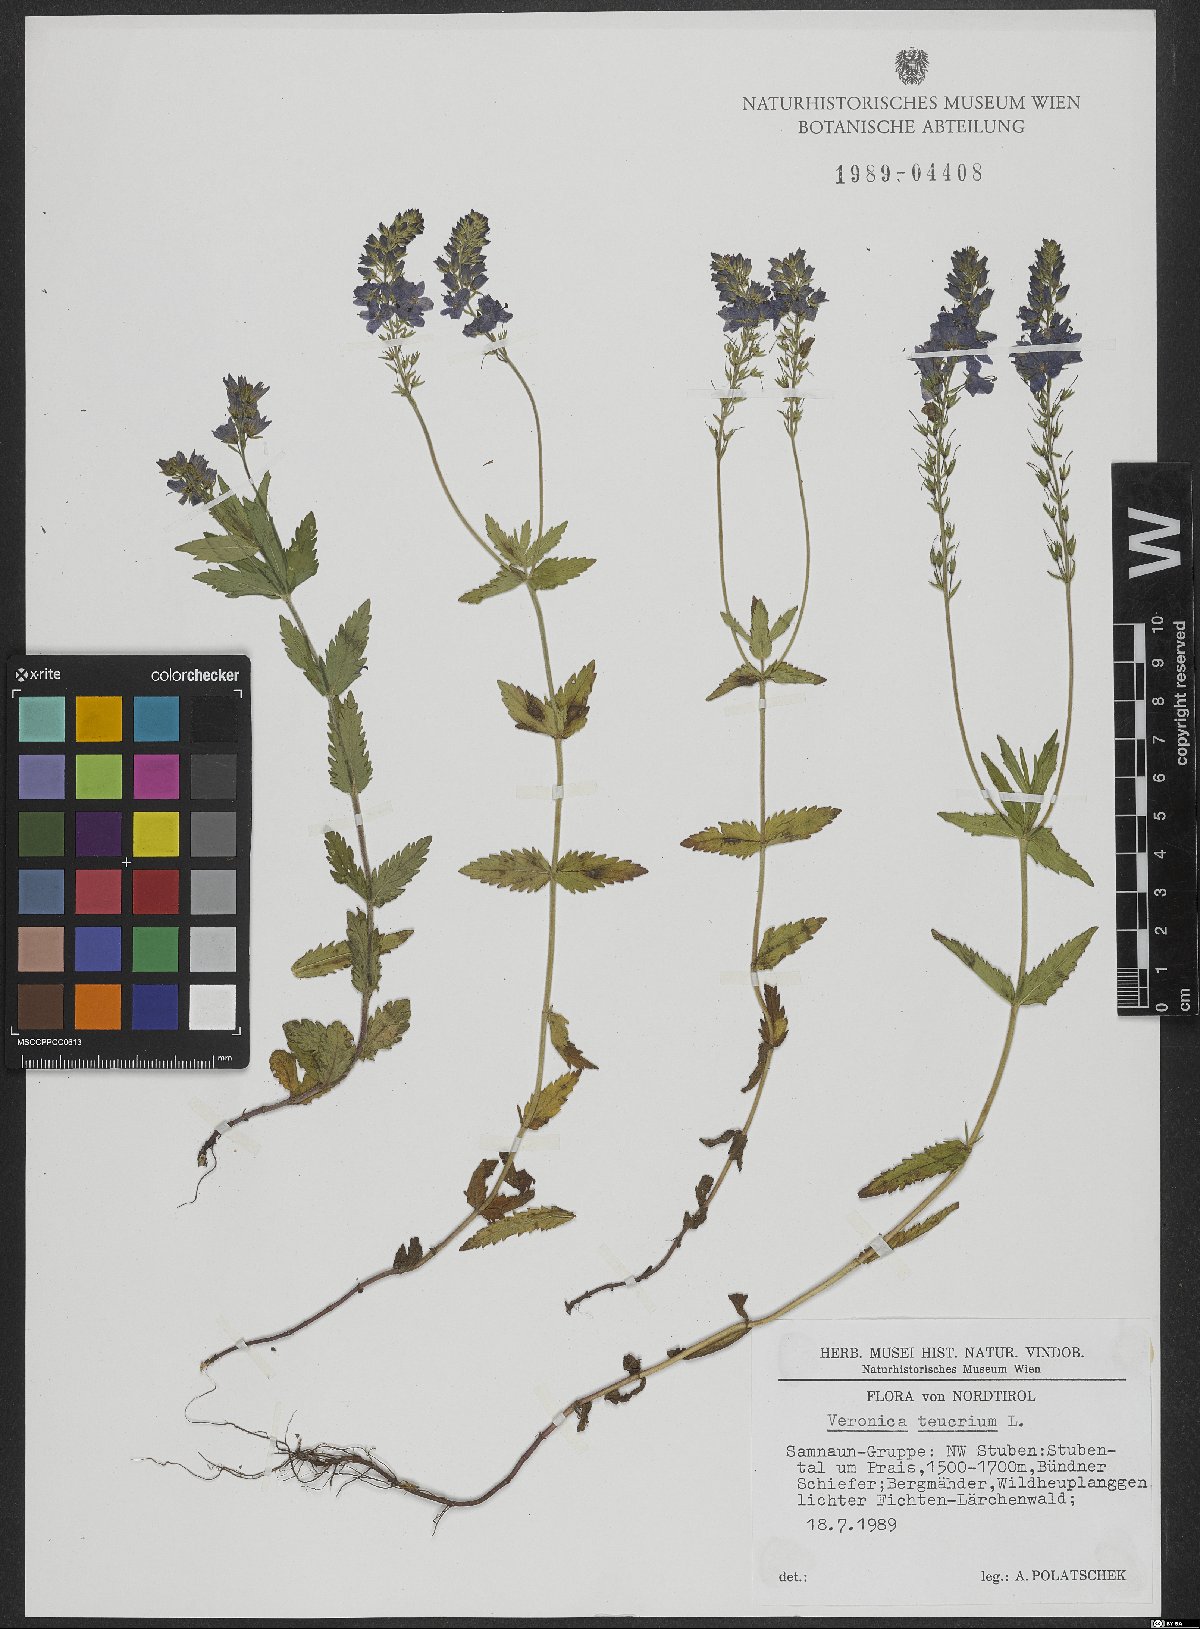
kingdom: Plantae
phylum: Tracheophyta
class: Magnoliopsida
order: Lamiales
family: Plantaginaceae
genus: Veronica
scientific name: Veronica teucrium
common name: Large speedwell
